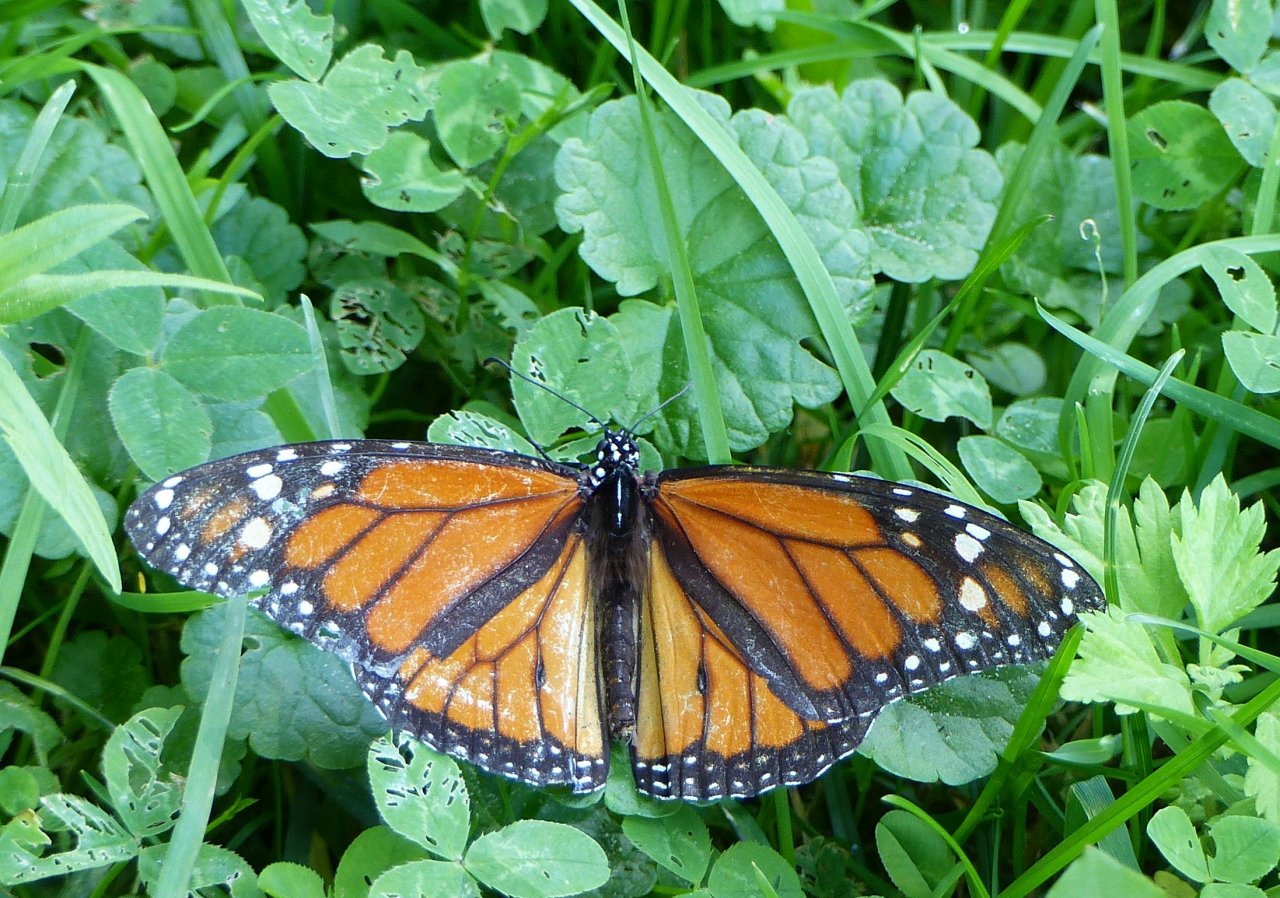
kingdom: Animalia
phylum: Arthropoda
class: Insecta
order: Lepidoptera
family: Nymphalidae
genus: Danaus
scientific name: Danaus plexippus
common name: Monarch
